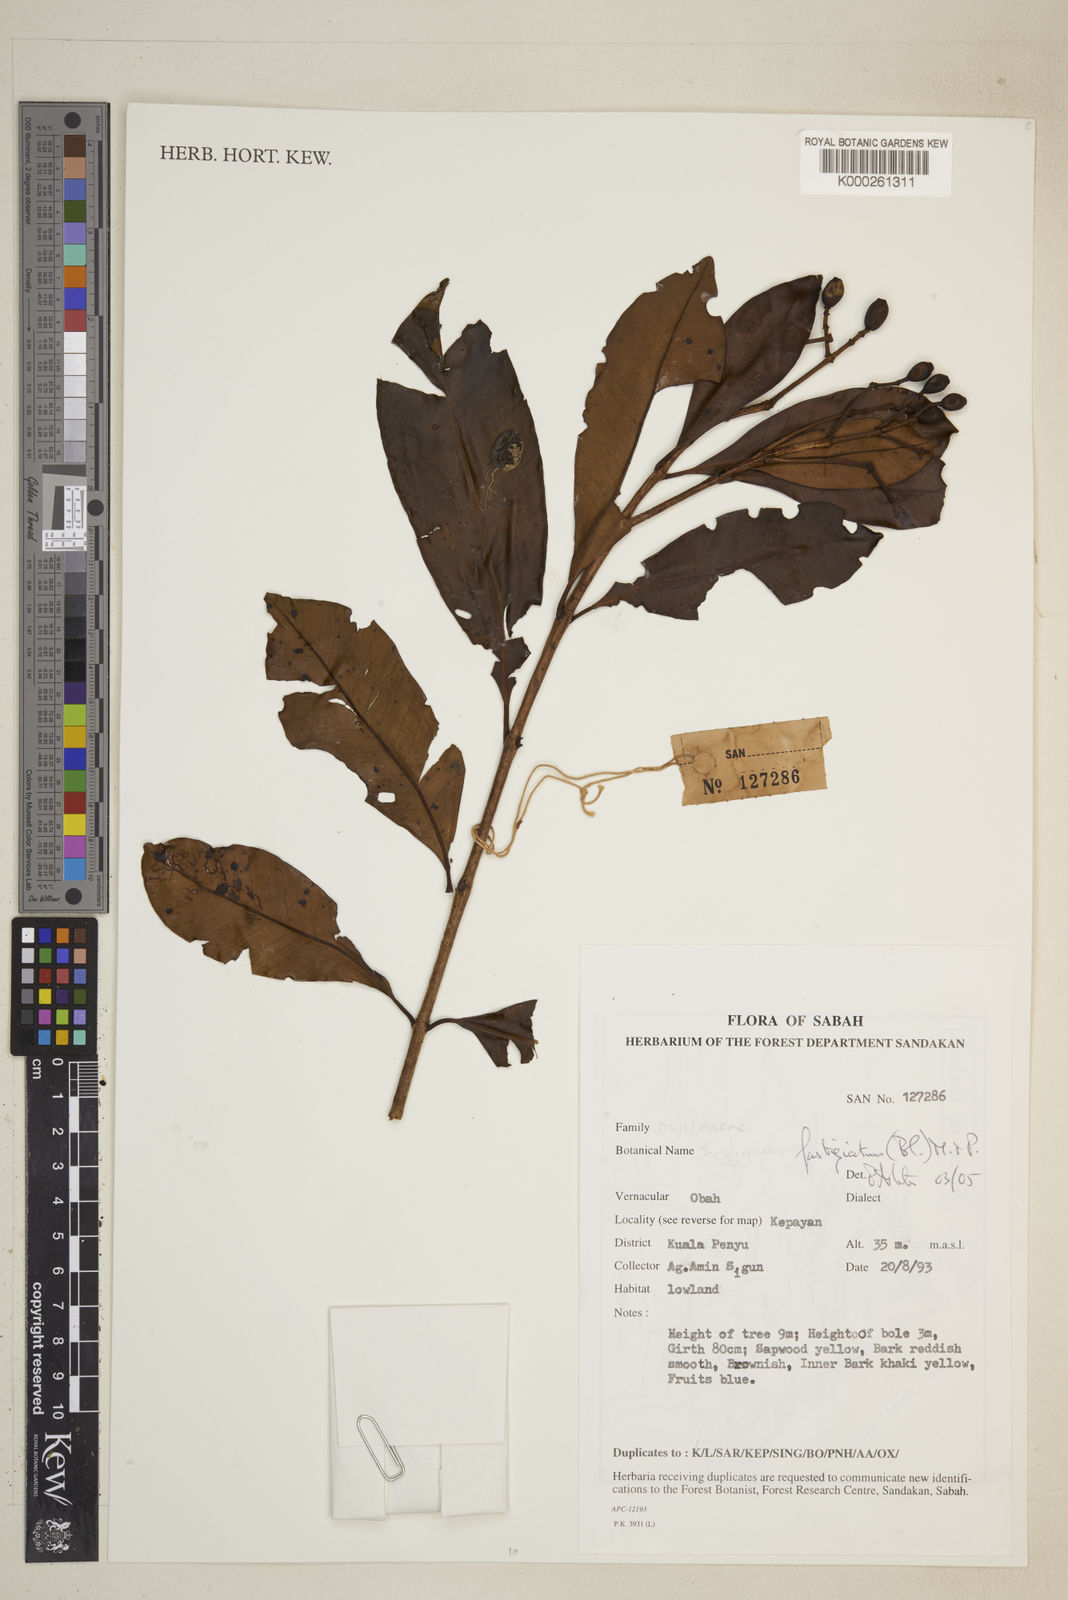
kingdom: Plantae
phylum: Tracheophyta
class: Magnoliopsida
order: Myrtales
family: Myrtaceae
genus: Syzygium
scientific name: Syzygium fastigiatum
